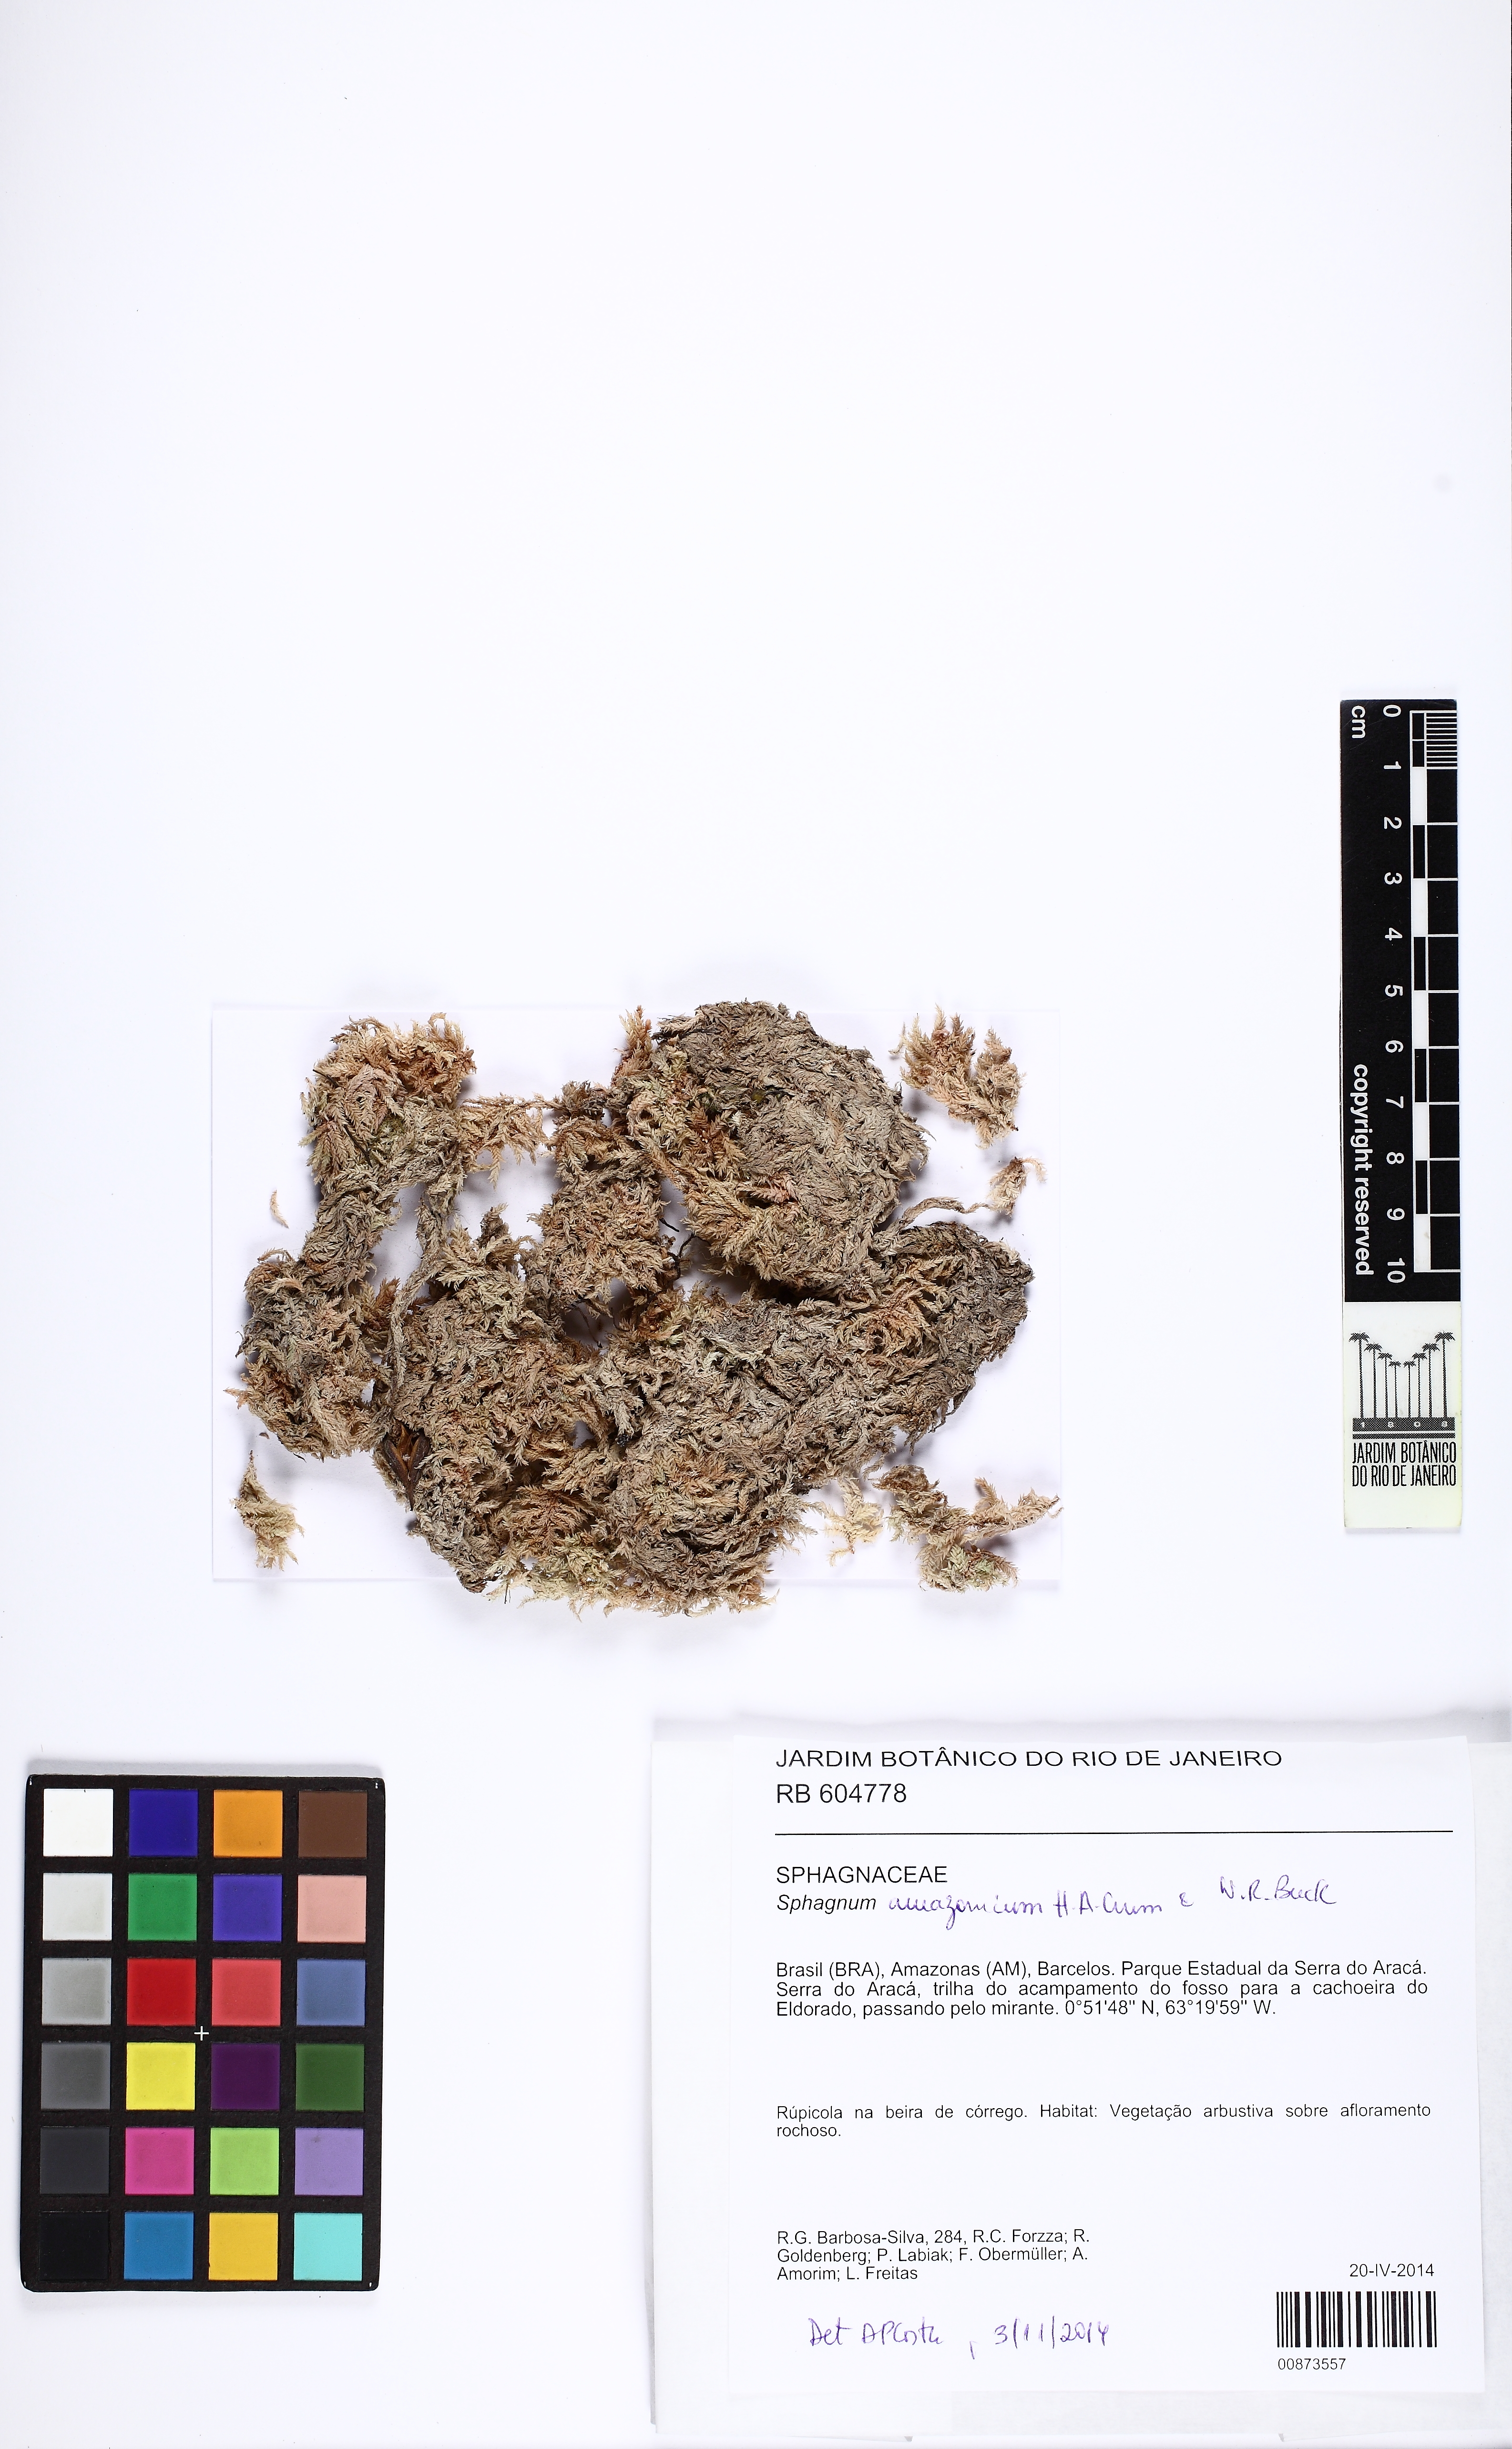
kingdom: Plantae
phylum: Bryophyta
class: Sphagnopsida
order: Sphagnales
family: Sphagnaceae
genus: Sphagnum
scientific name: Sphagnum amazonicum
